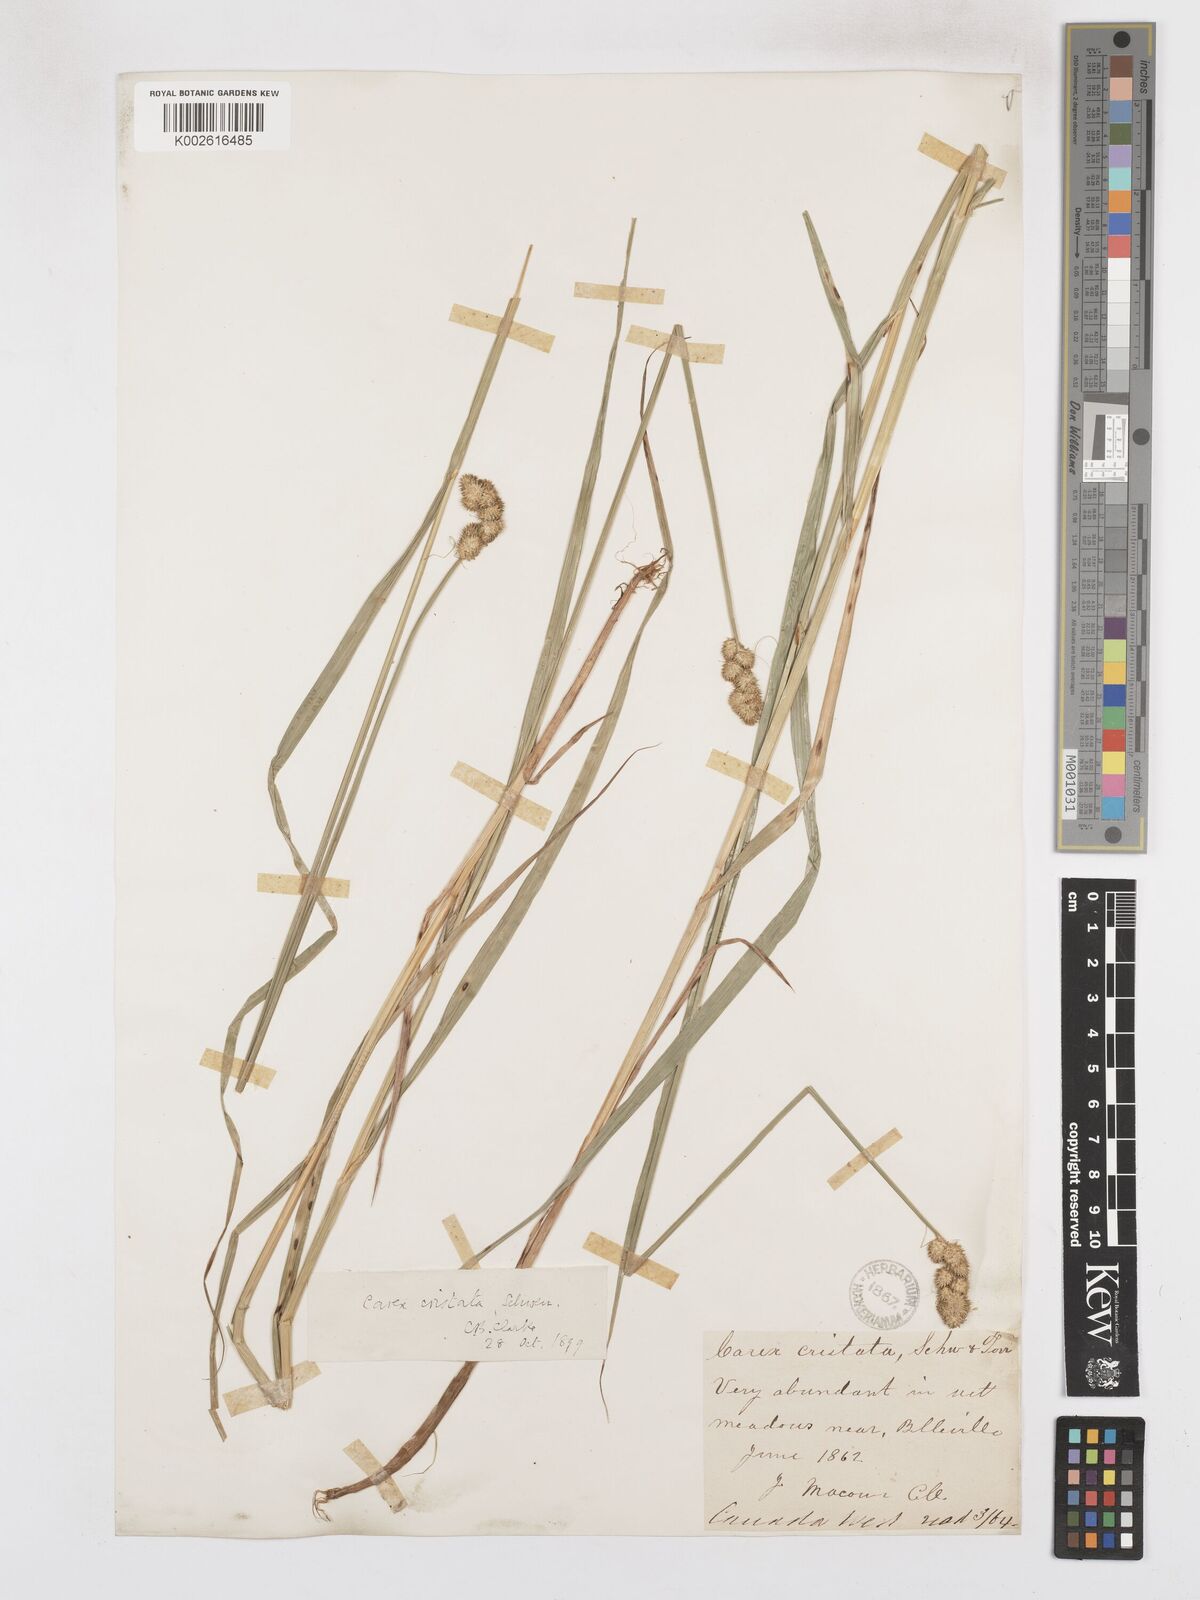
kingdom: Plantae
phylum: Tracheophyta
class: Liliopsida
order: Poales
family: Cyperaceae
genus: Carex
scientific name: Carex cristatella
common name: Crested oval sedge
